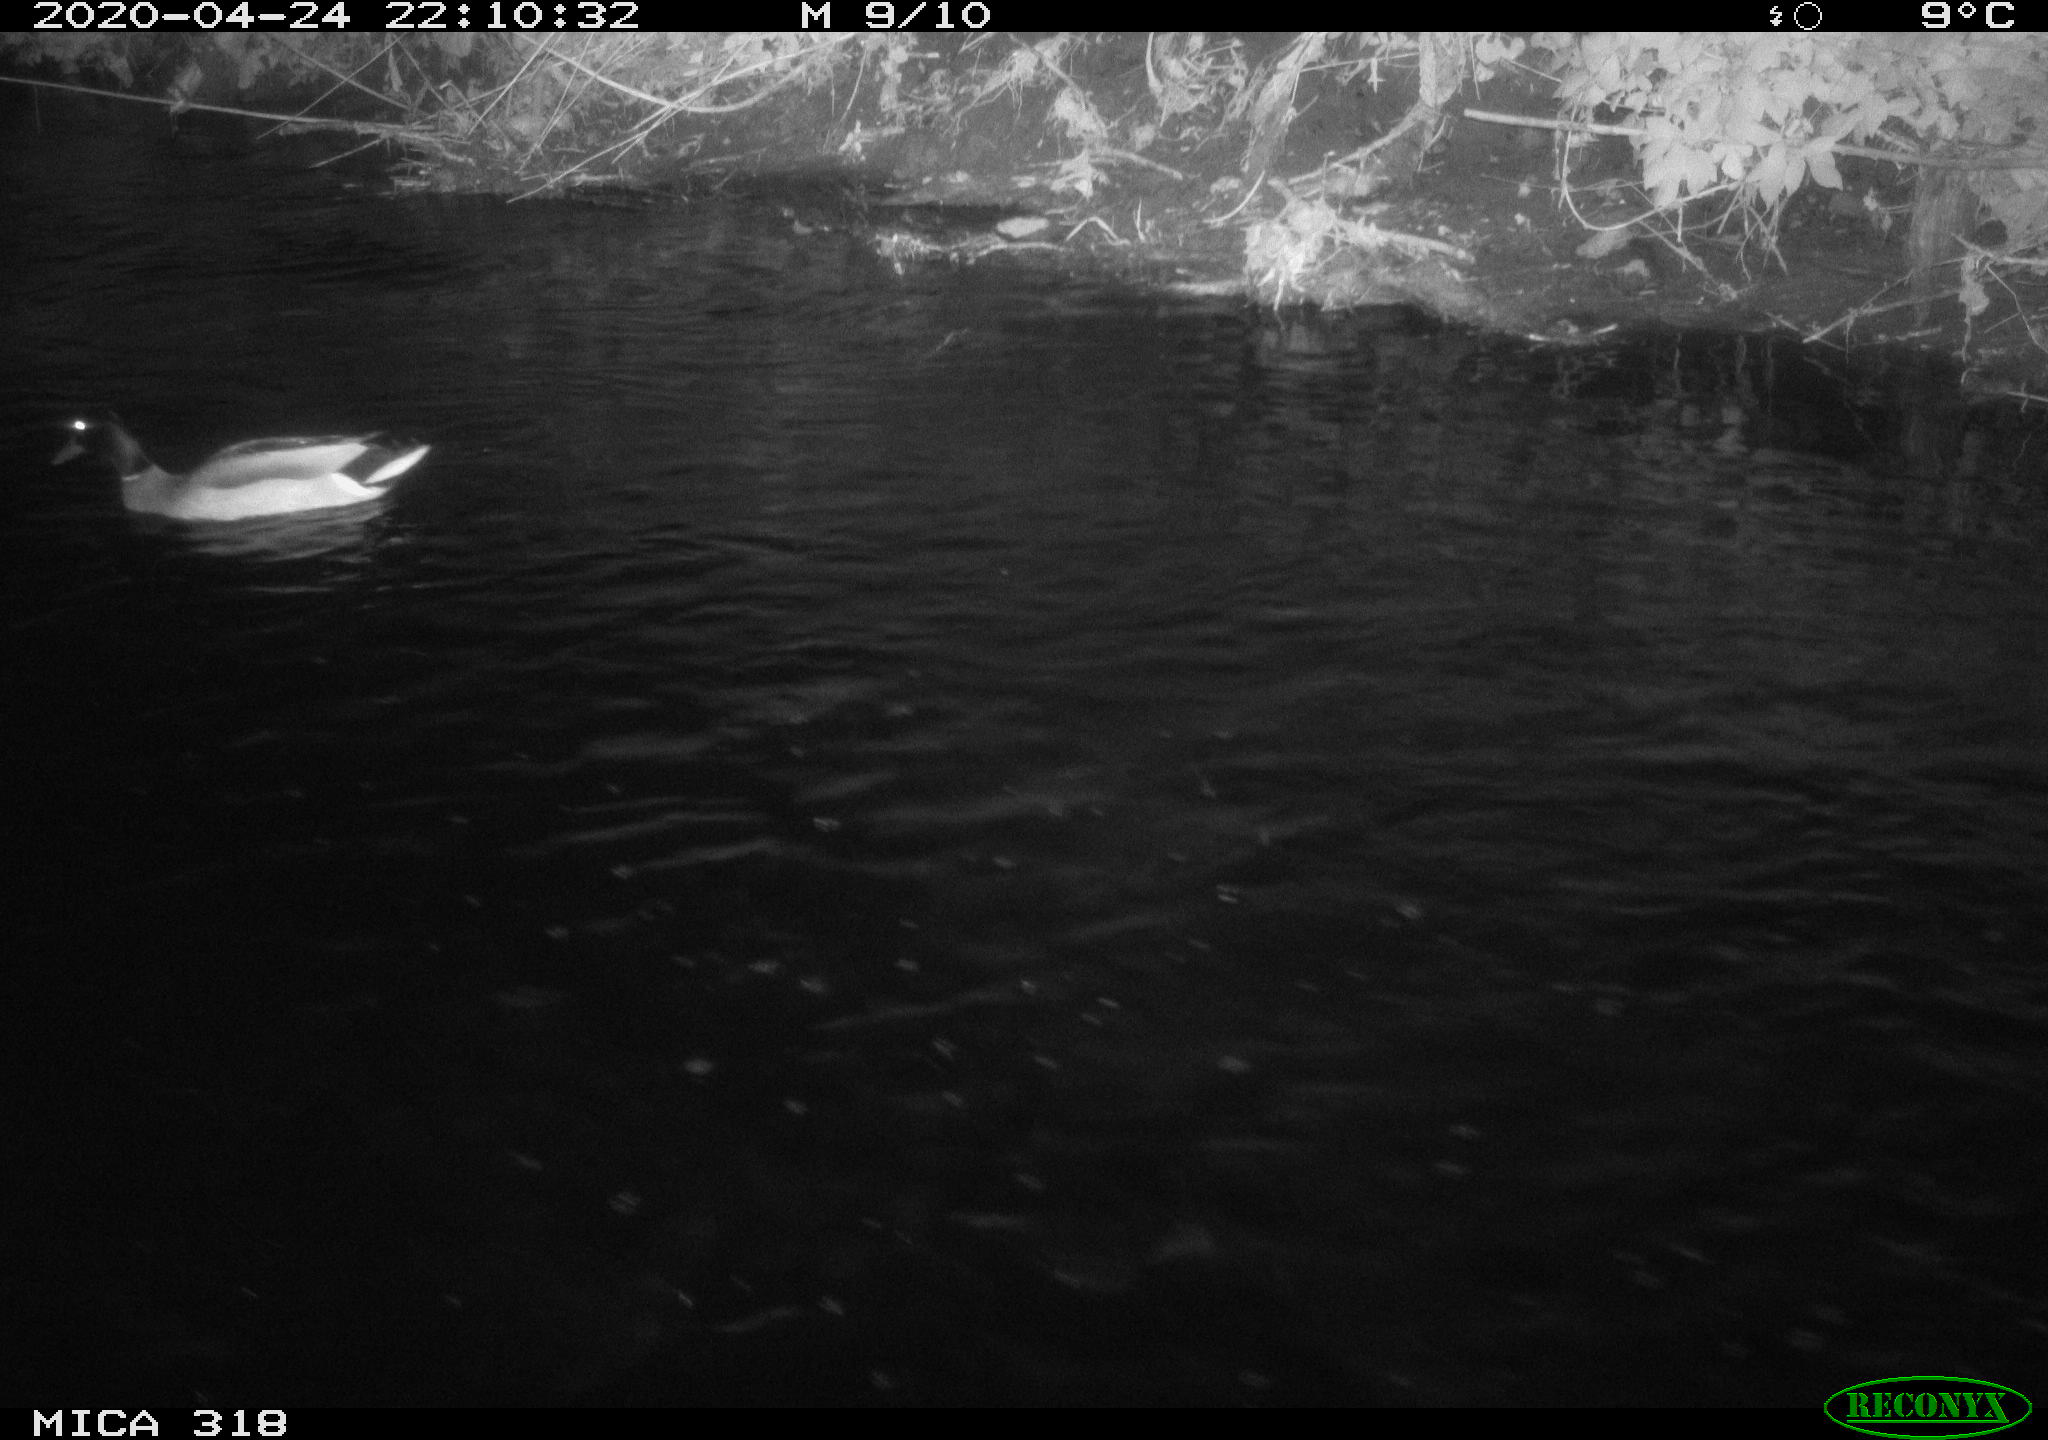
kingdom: Animalia
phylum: Chordata
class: Aves
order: Anseriformes
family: Anatidae
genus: Anas
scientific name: Anas platyrhynchos
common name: Mallard
